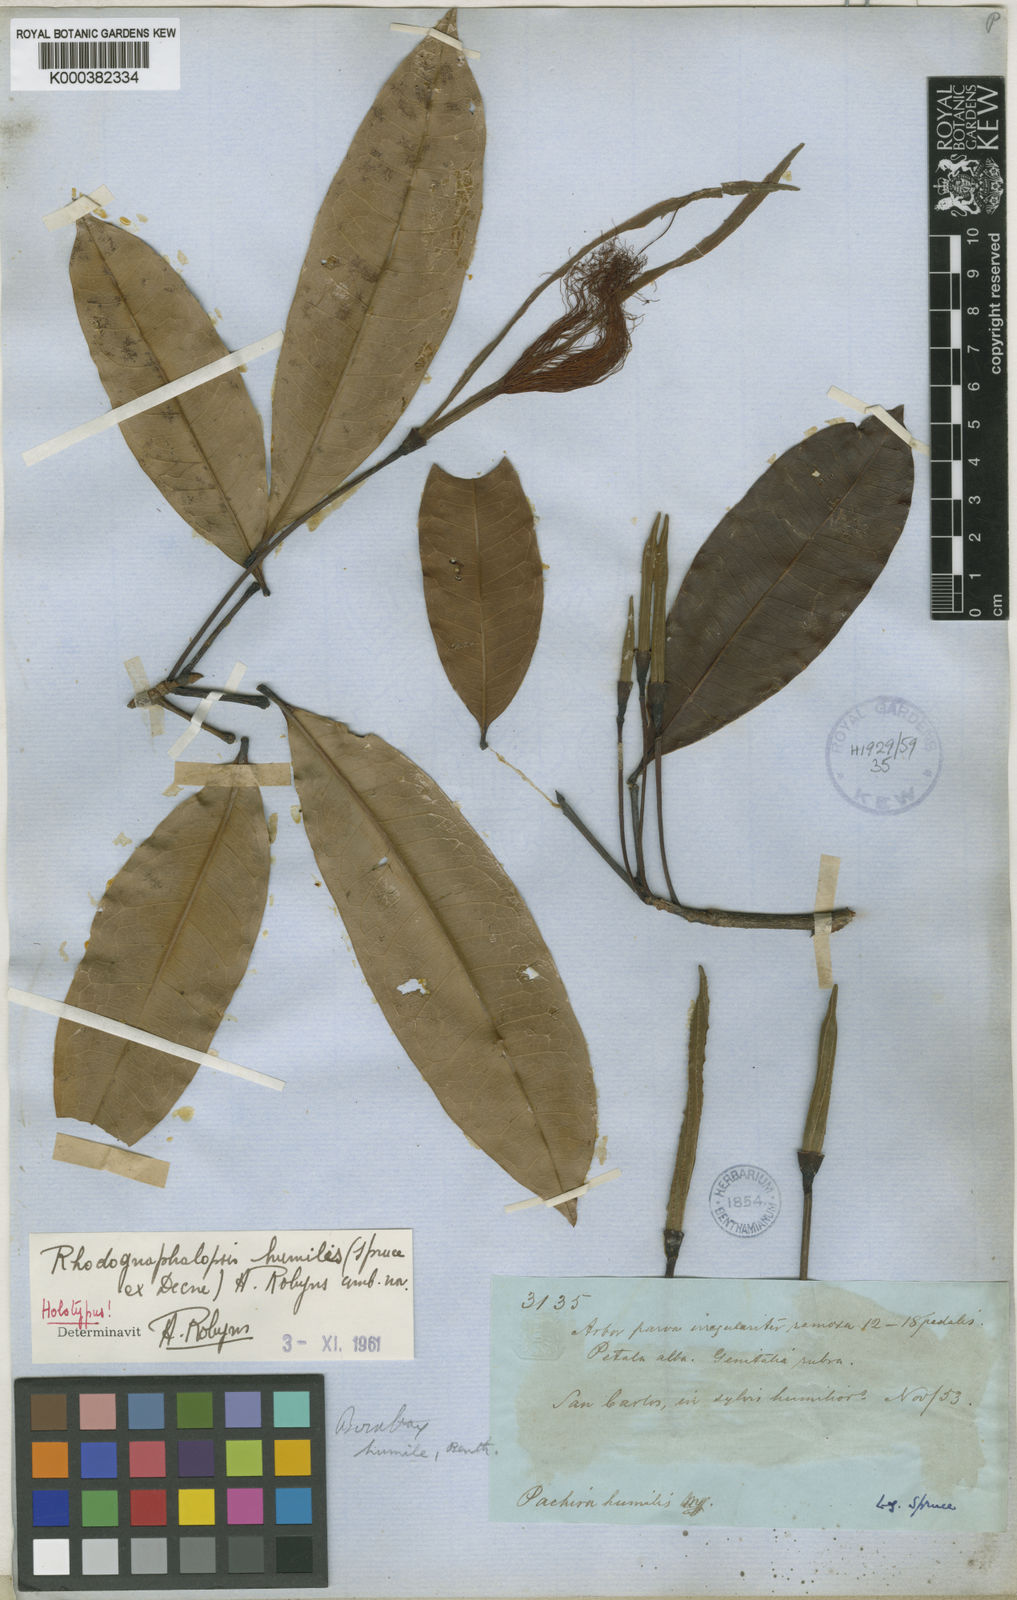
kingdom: Plantae
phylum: Tracheophyta
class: Magnoliopsida
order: Malvales
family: Malvaceae
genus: Pachira
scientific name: Pachira humilis
